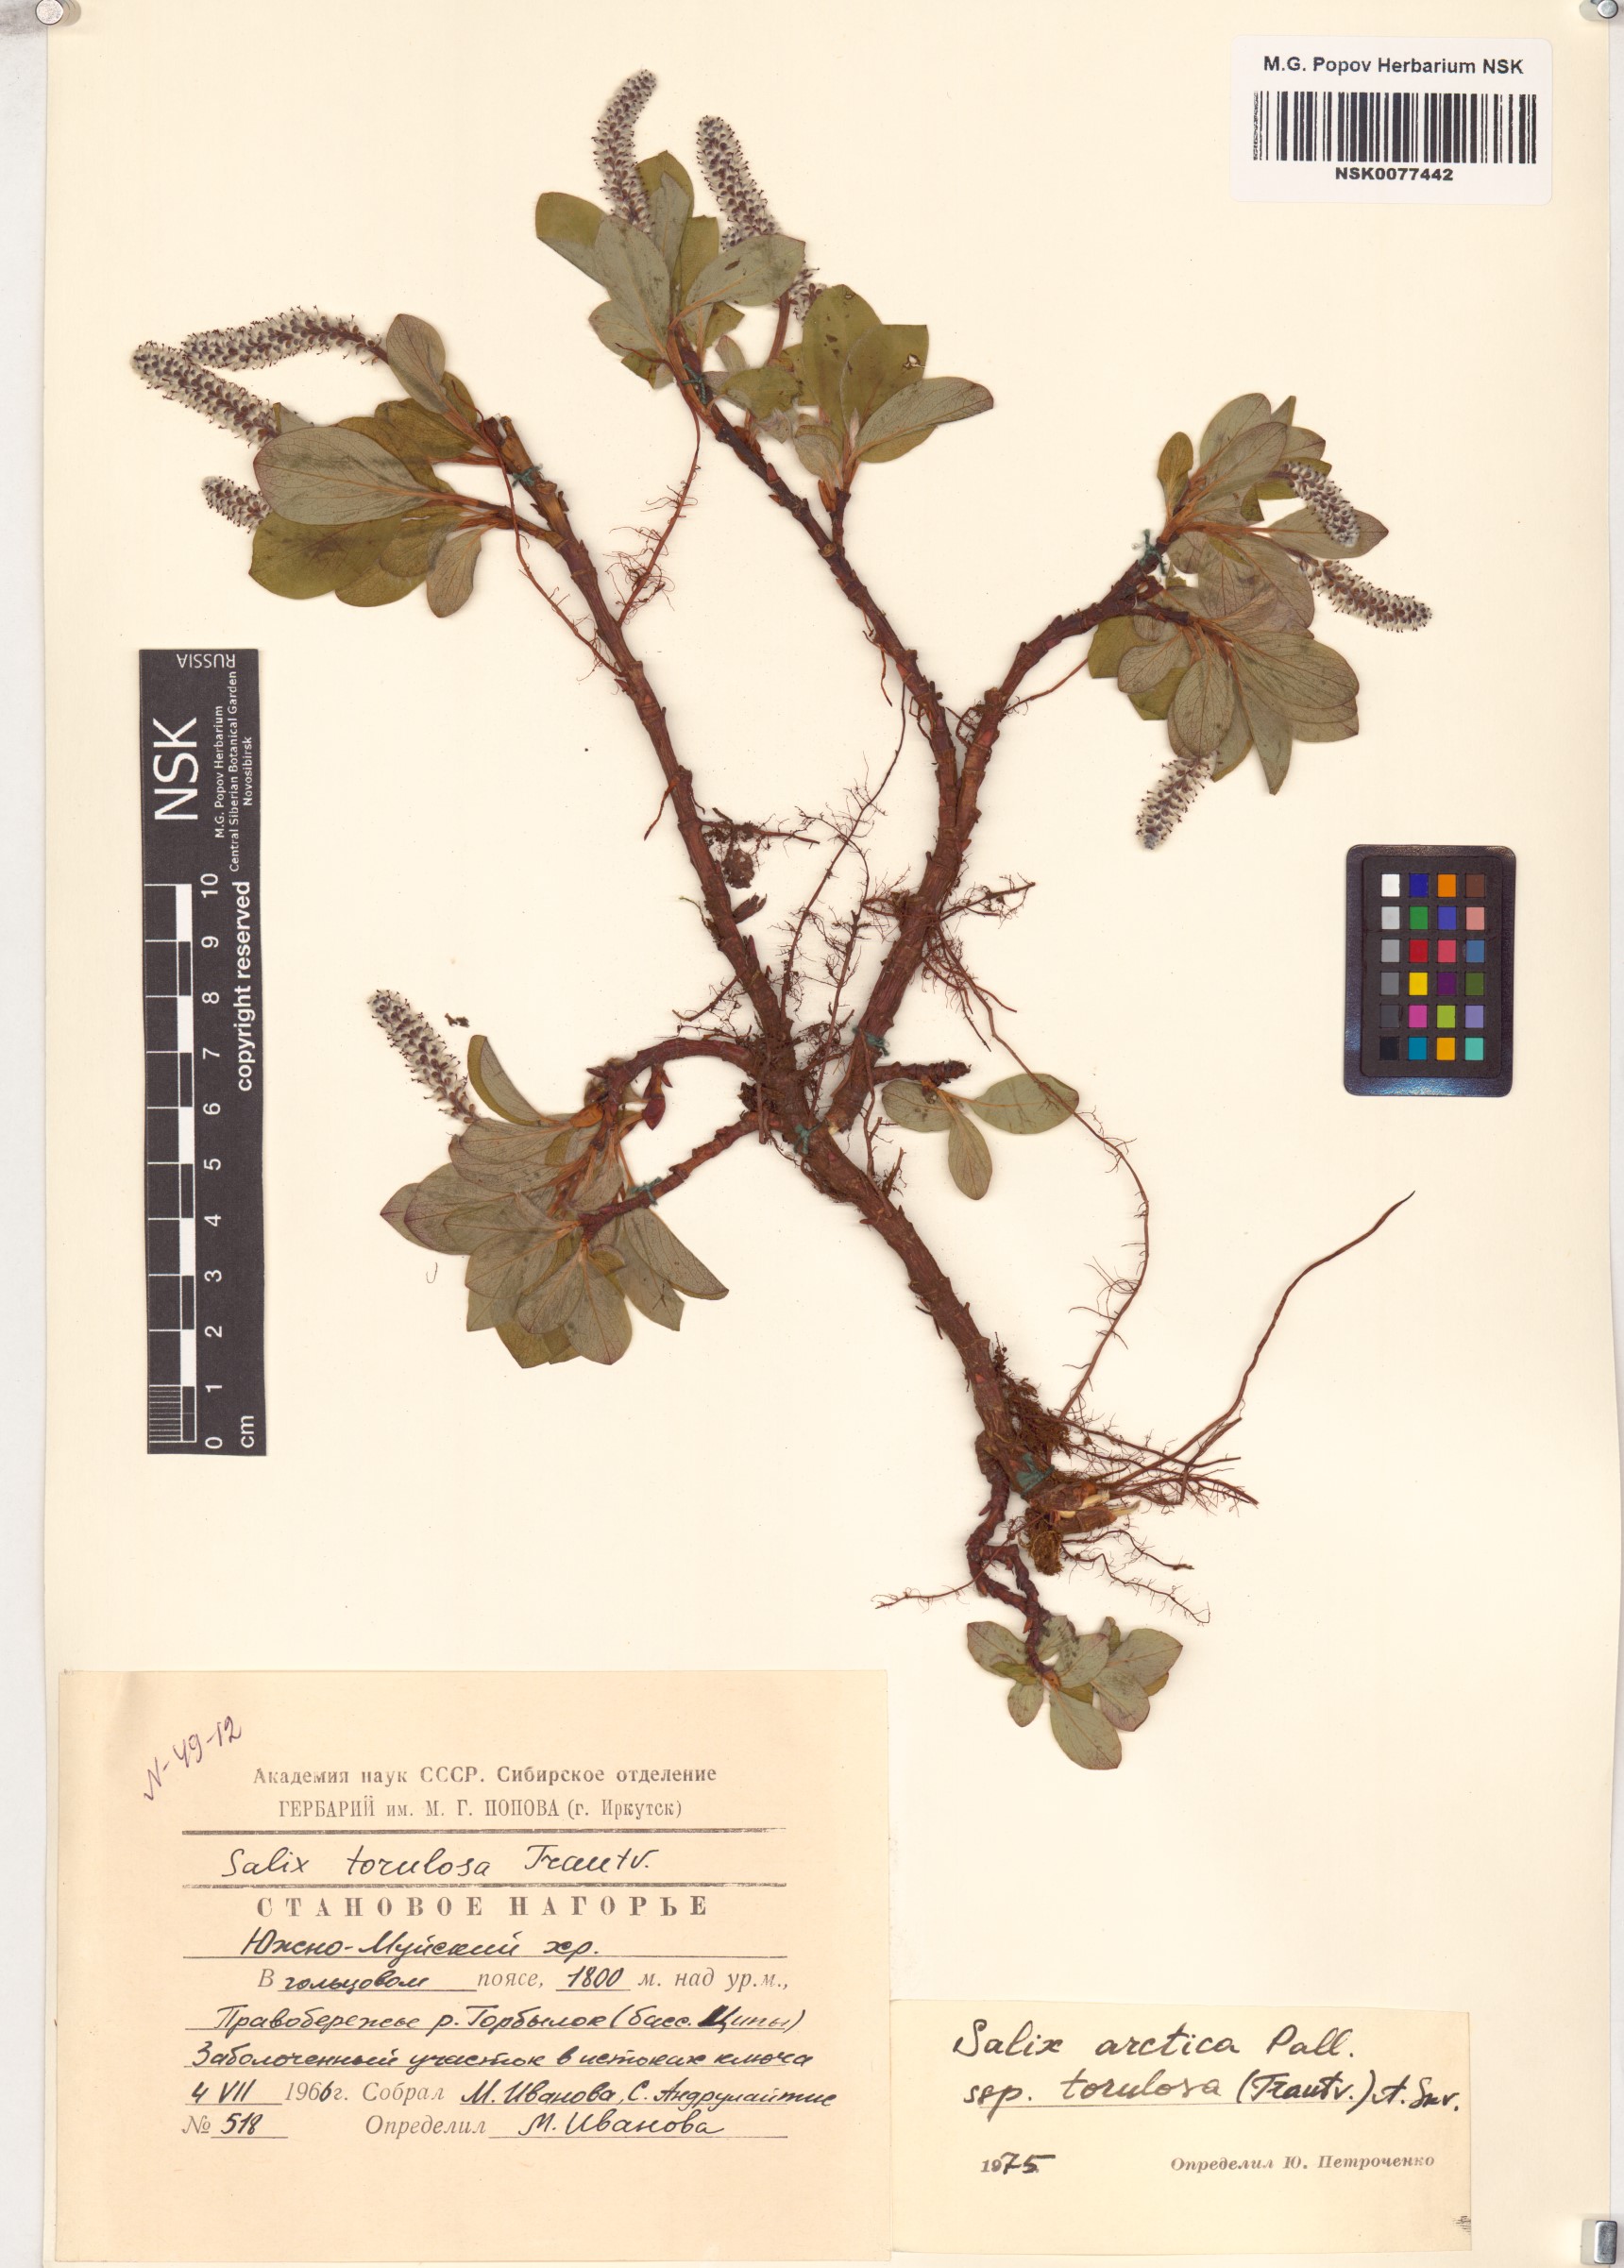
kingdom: Plantae
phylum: Tracheophyta
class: Magnoliopsida
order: Malpighiales
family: Salicaceae
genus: Salix
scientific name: Salix arctica
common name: Arctic willow
